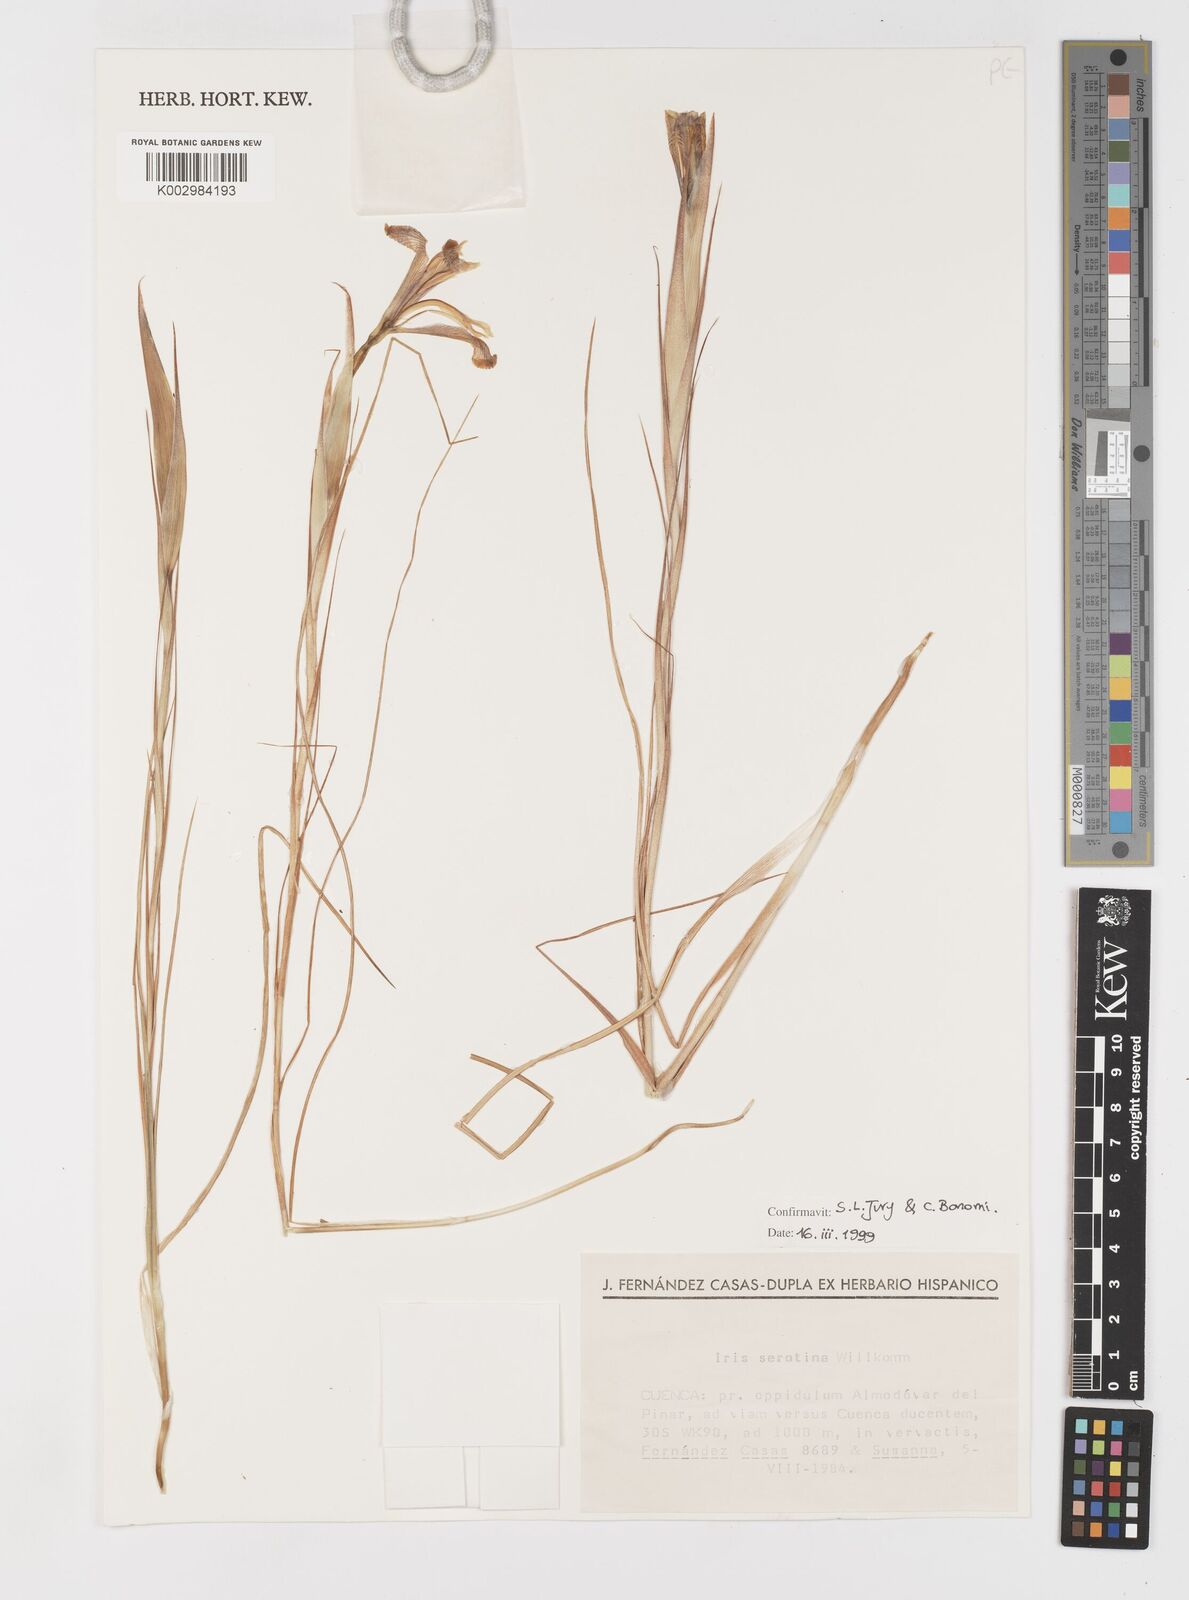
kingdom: Plantae
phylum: Tracheophyta
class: Liliopsida
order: Asparagales
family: Iridaceae
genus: Iris
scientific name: Iris serotina
